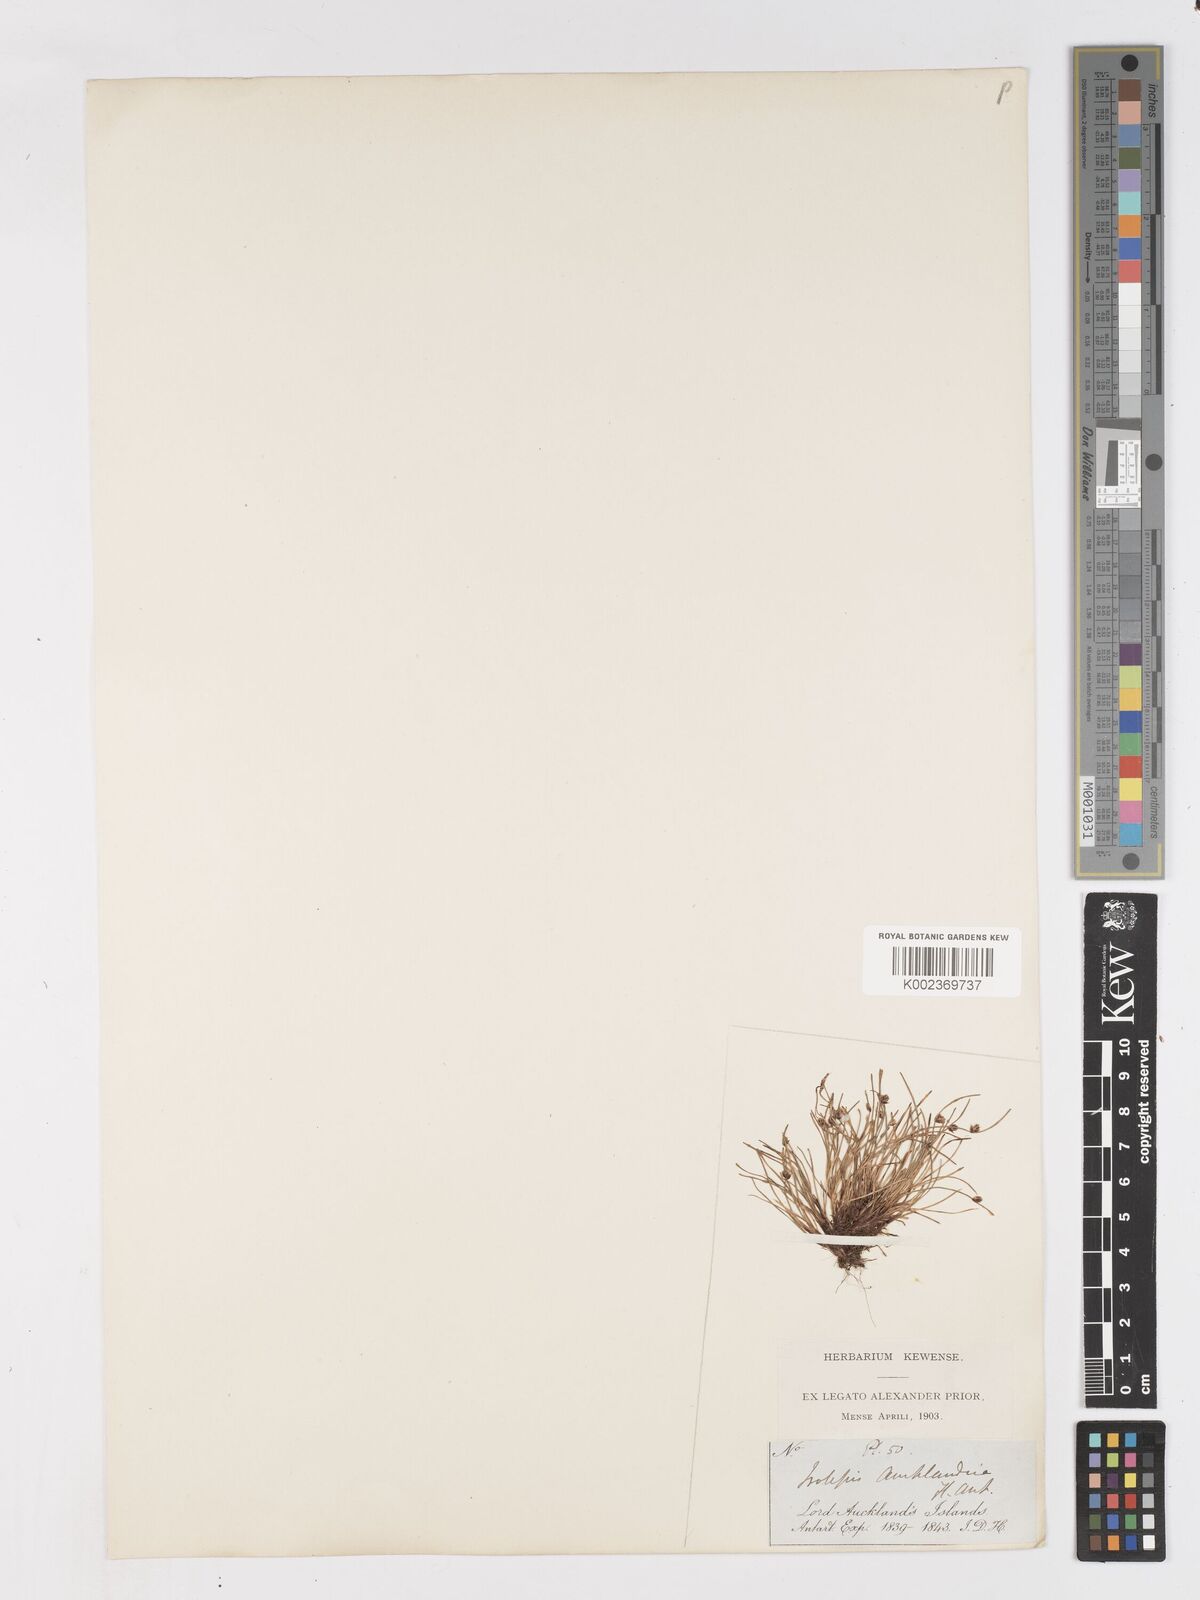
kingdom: Plantae
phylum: Tracheophyta
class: Liliopsida
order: Poales
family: Cyperaceae
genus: Isolepis
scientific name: Isolepis aucklandica
